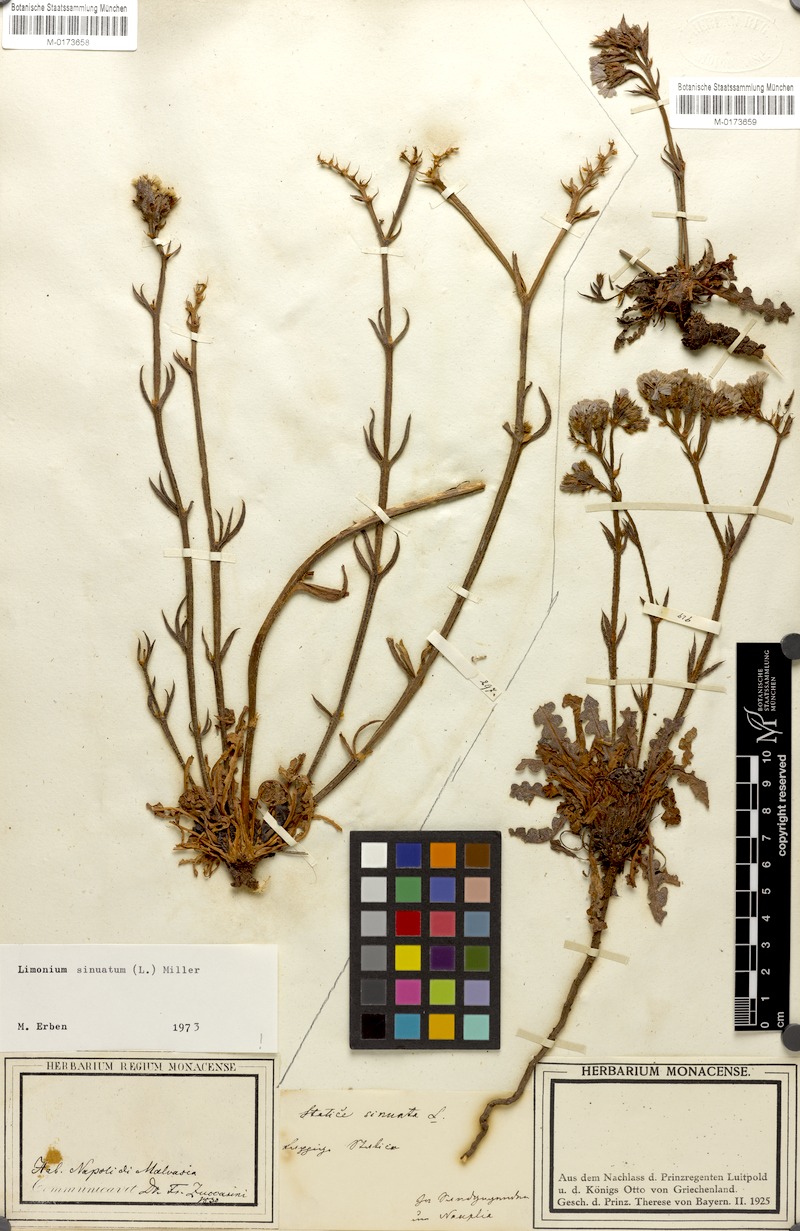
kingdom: Plantae
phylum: Tracheophyta
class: Magnoliopsida
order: Caryophyllales
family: Plumbaginaceae
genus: Limonium
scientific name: Limonium sinuatum
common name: Statice
